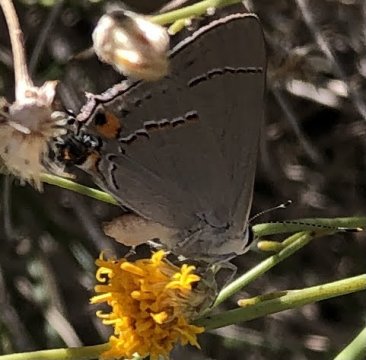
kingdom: Animalia
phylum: Arthropoda
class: Insecta
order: Lepidoptera
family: Lycaenidae
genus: Strymon
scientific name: Strymon melinus
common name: Gray Hairstreak
